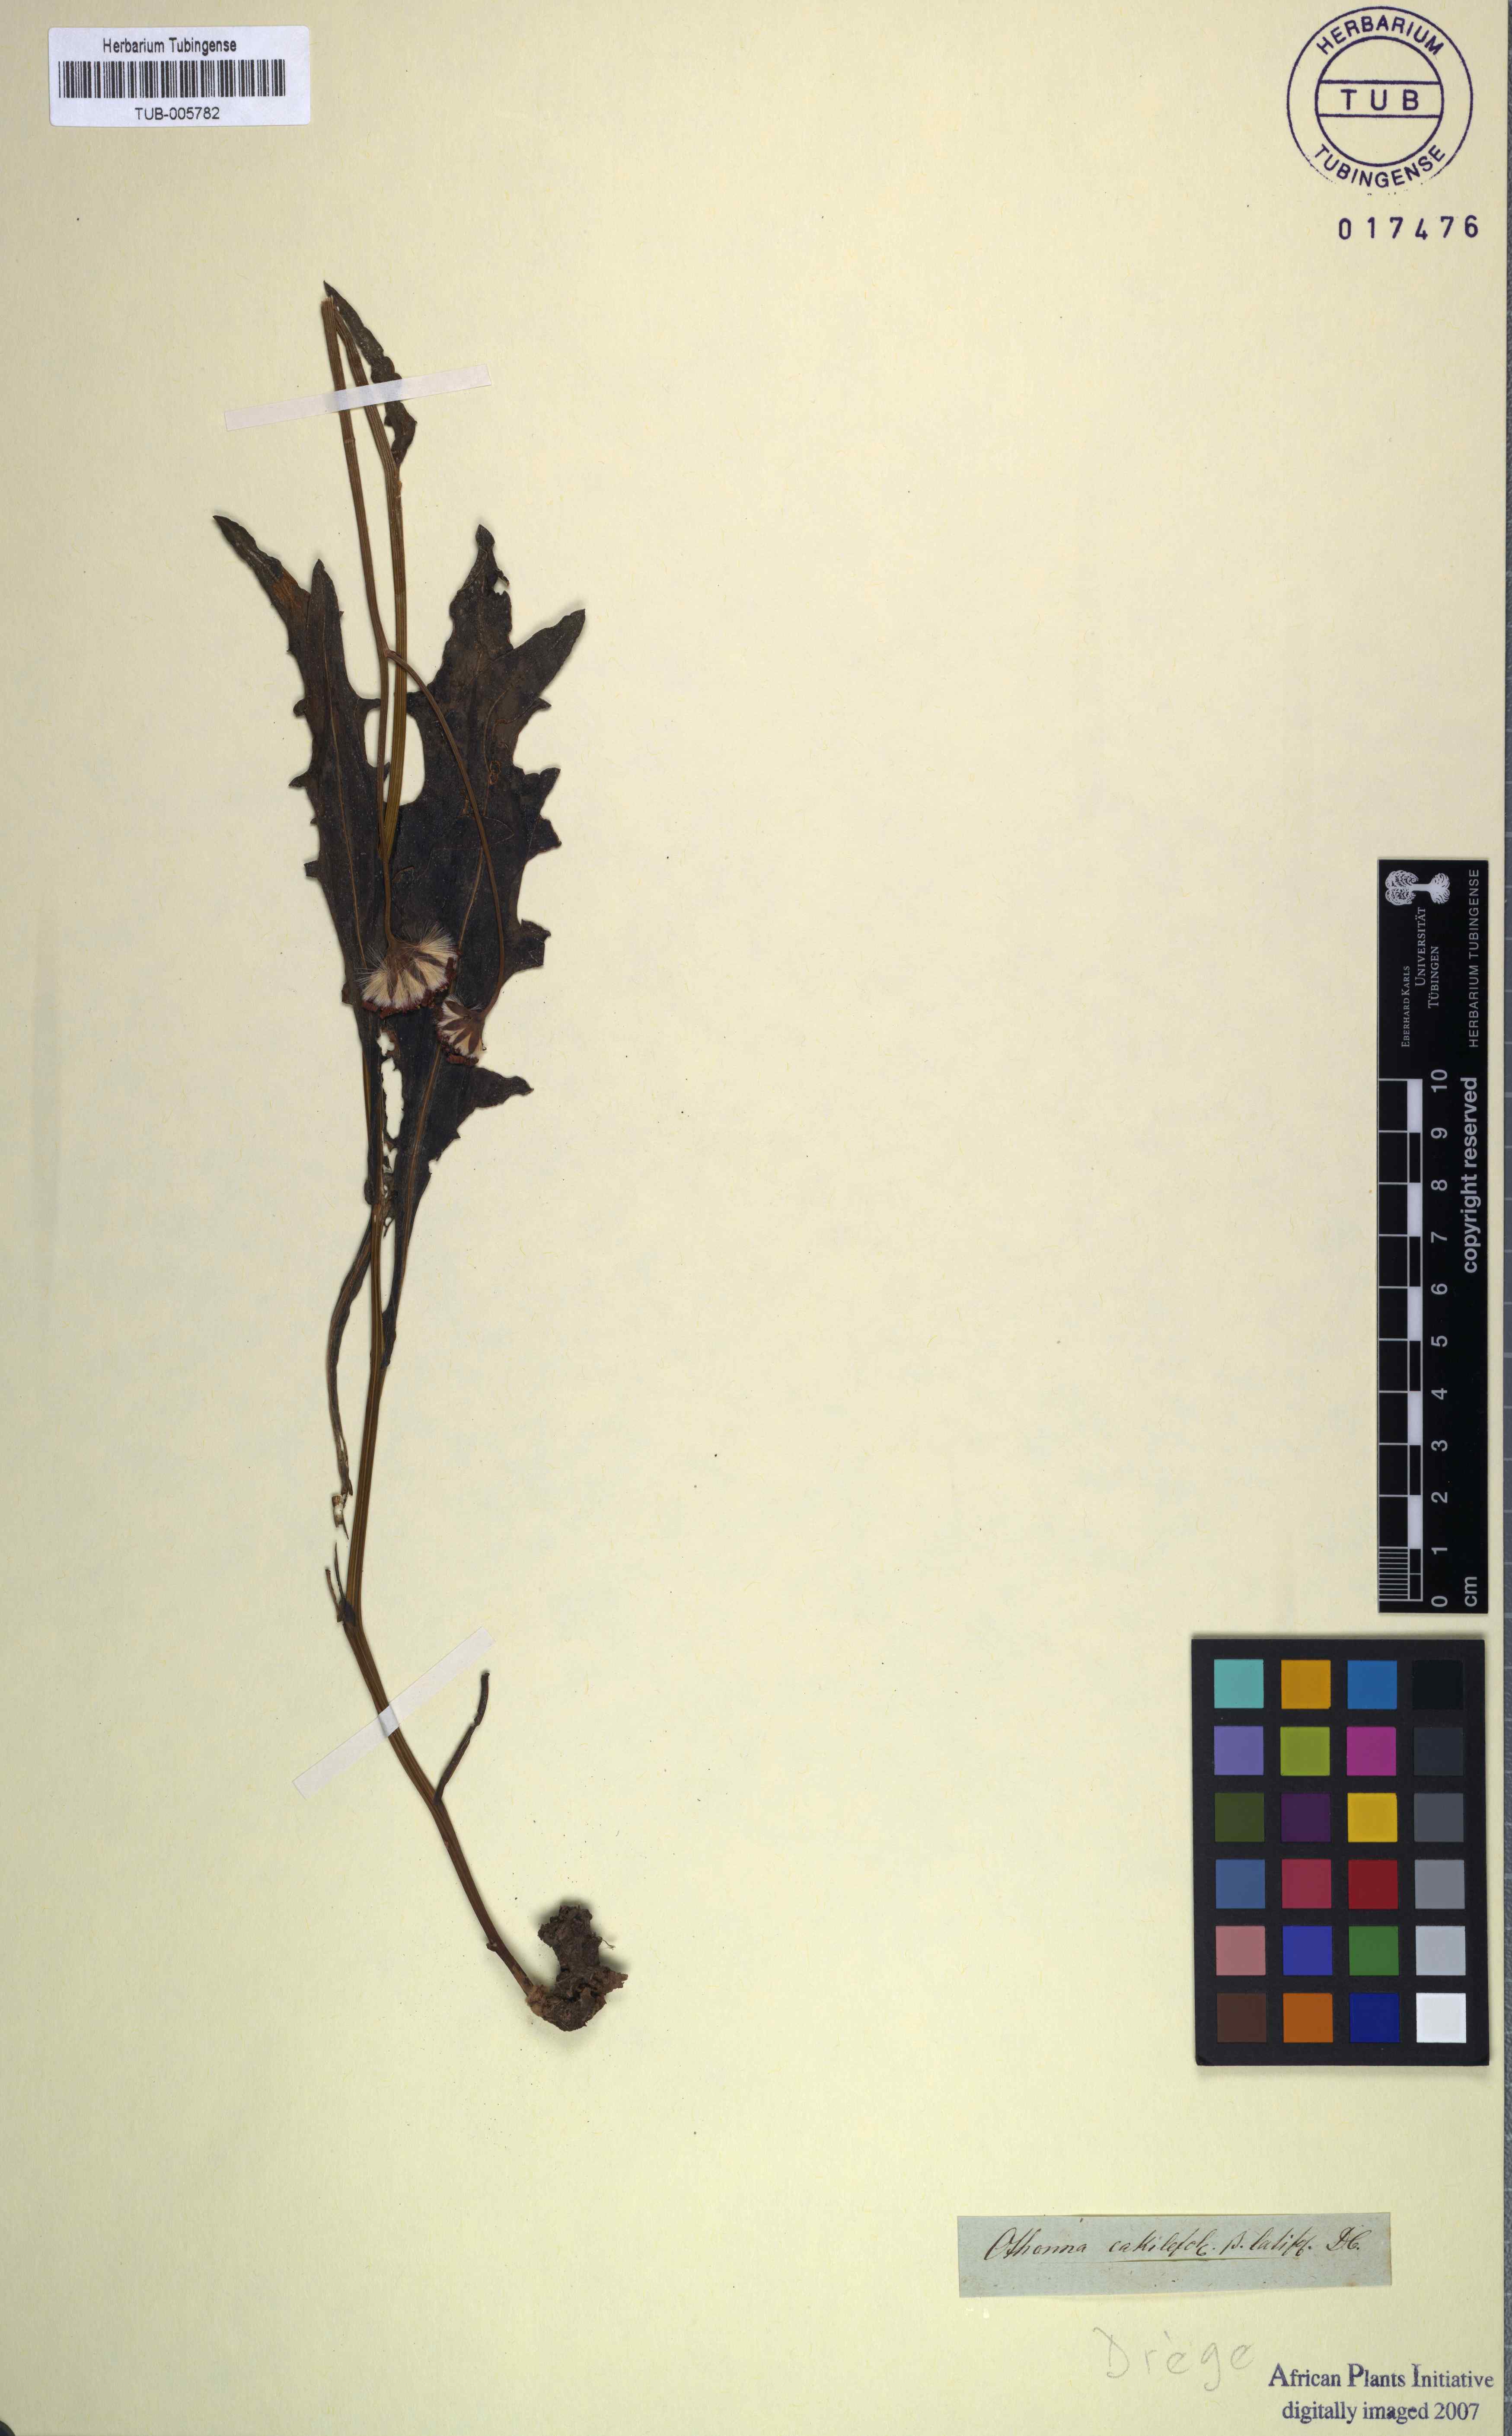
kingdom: Plantae
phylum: Tracheophyta
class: Magnoliopsida
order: Asterales
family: Asteraceae
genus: Othonna
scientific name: Othonna cakilefolia
